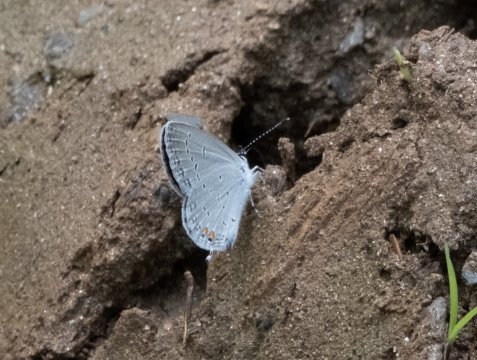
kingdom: Animalia
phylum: Arthropoda
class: Insecta
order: Lepidoptera
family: Lycaenidae
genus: Elkalyce
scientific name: Elkalyce comyntas
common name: Eastern Tailed-Blue
